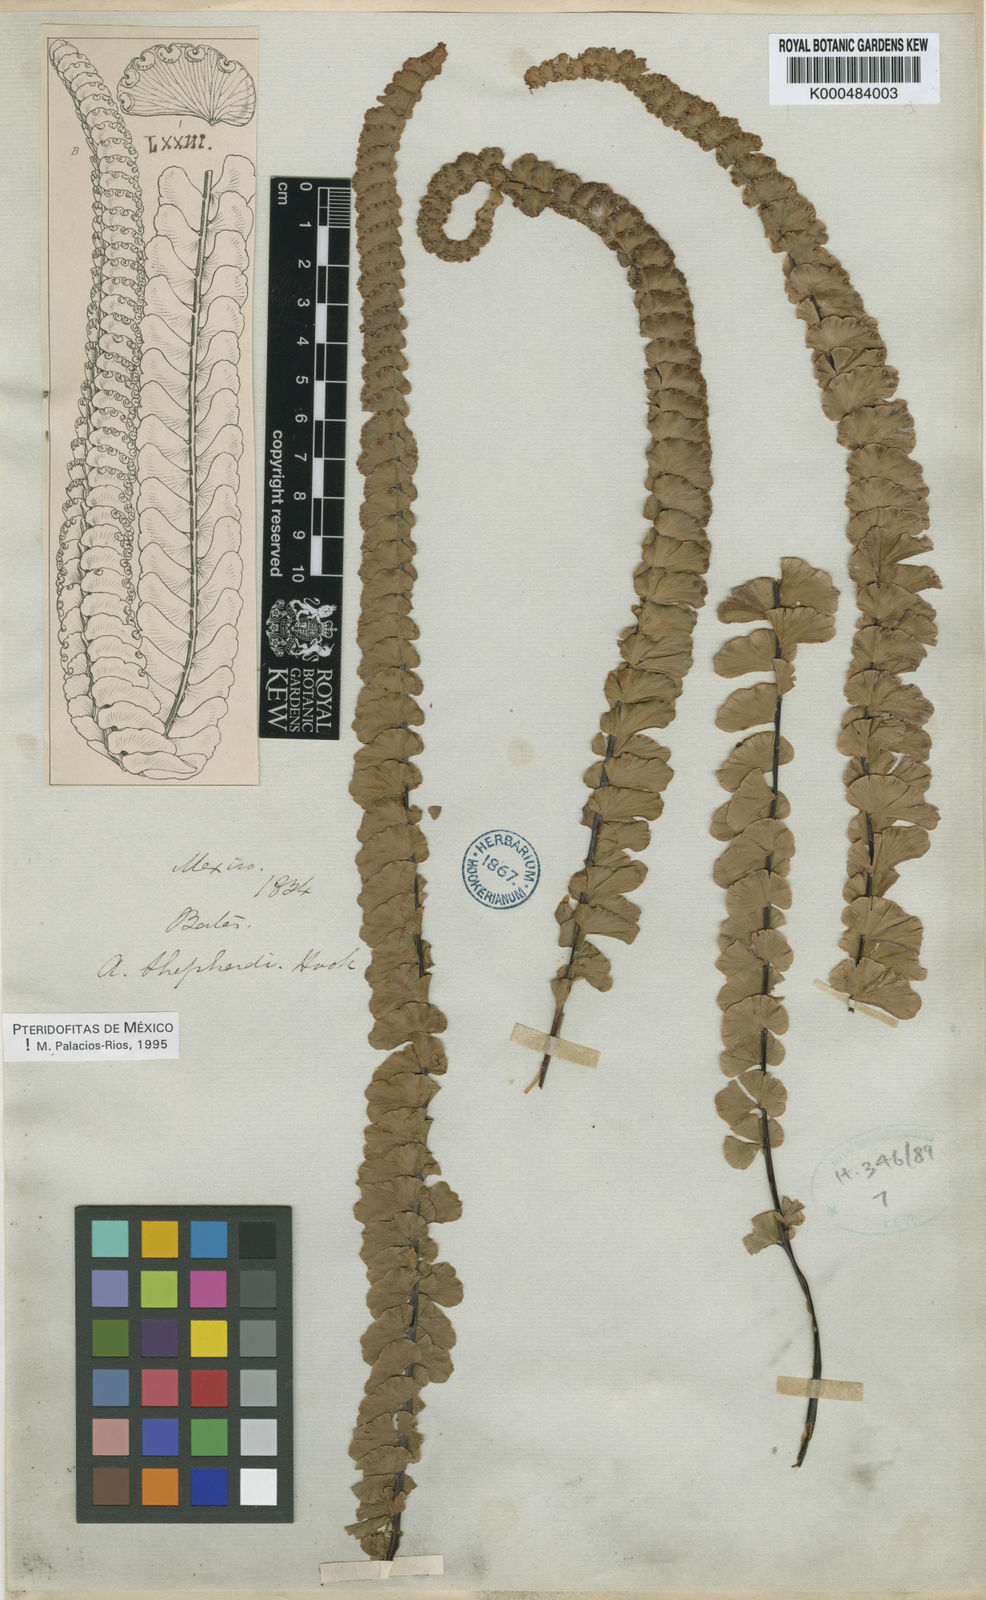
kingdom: Plantae
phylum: Tracheophyta
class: Polypodiopsida
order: Polypodiales
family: Pteridaceae
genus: Adiantum
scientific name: Adiantum shepherdii
